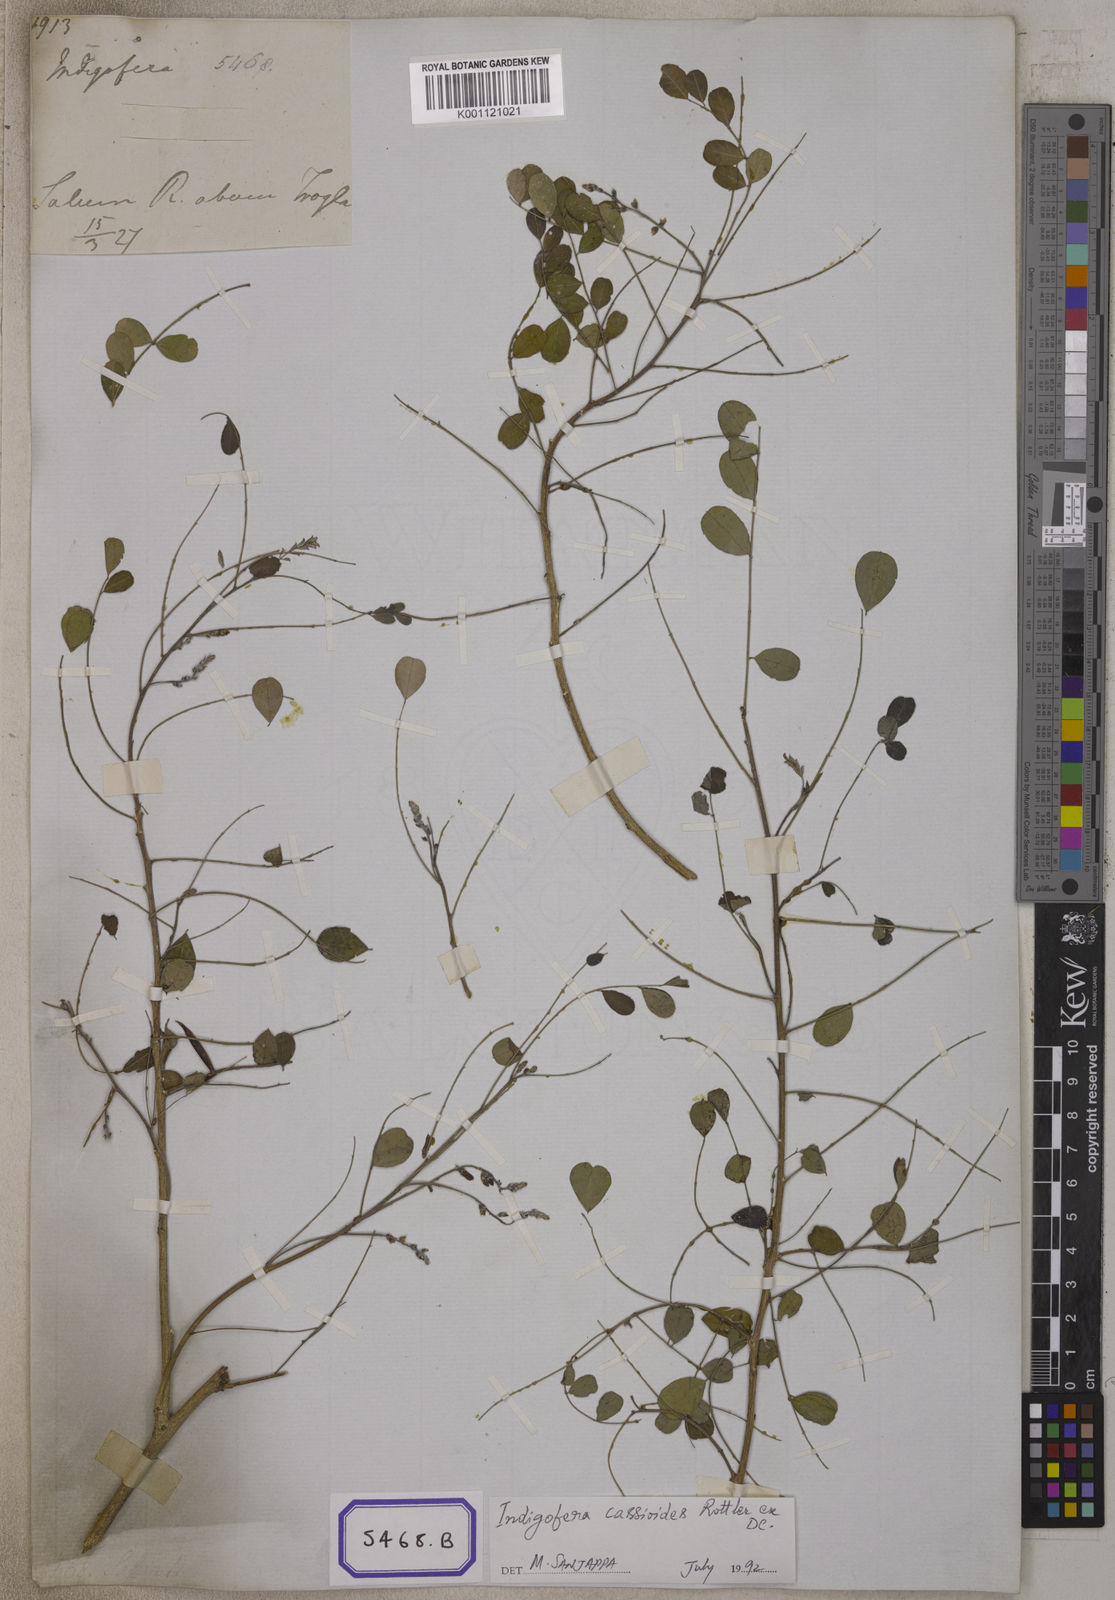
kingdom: Plantae
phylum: Tracheophyta
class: Magnoliopsida
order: Fabales
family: Fabaceae
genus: Indigofera
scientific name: Indigofera cassioides
